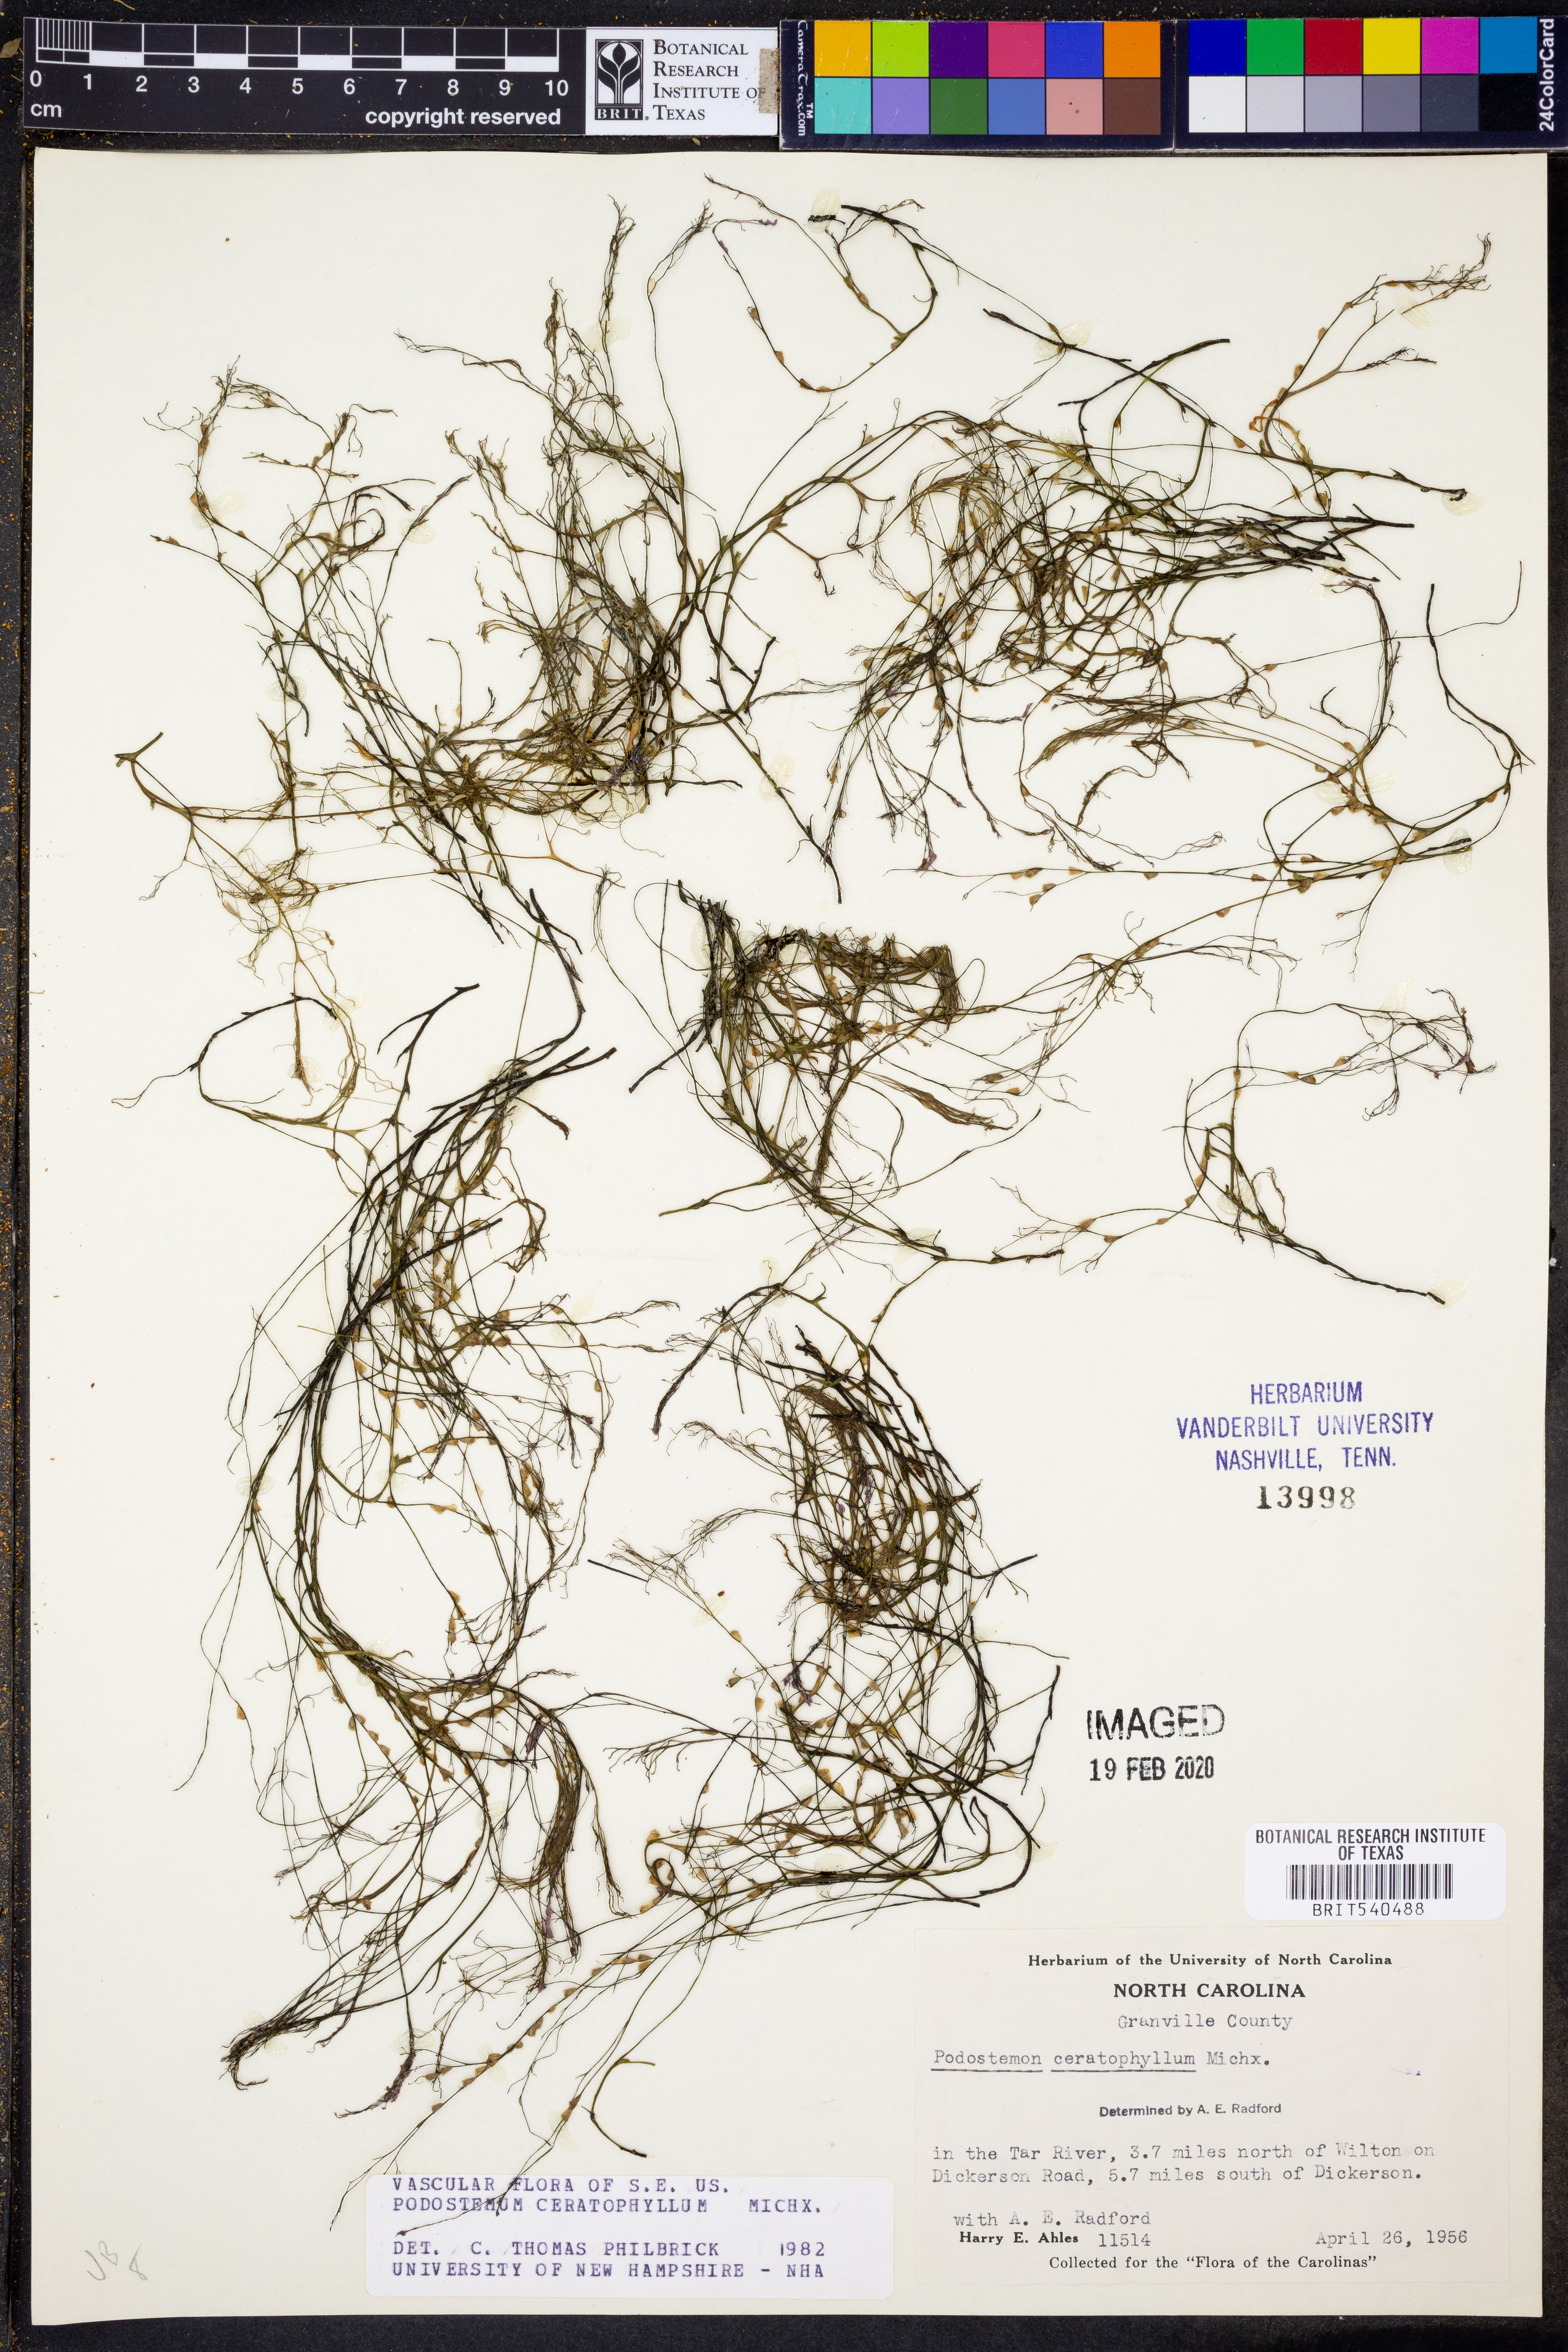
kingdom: Plantae
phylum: Tracheophyta
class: Magnoliopsida
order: Malpighiales
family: Podostemaceae
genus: Podostemum
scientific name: Podostemum ceratophyllum
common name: Horn-leaved riverweed
